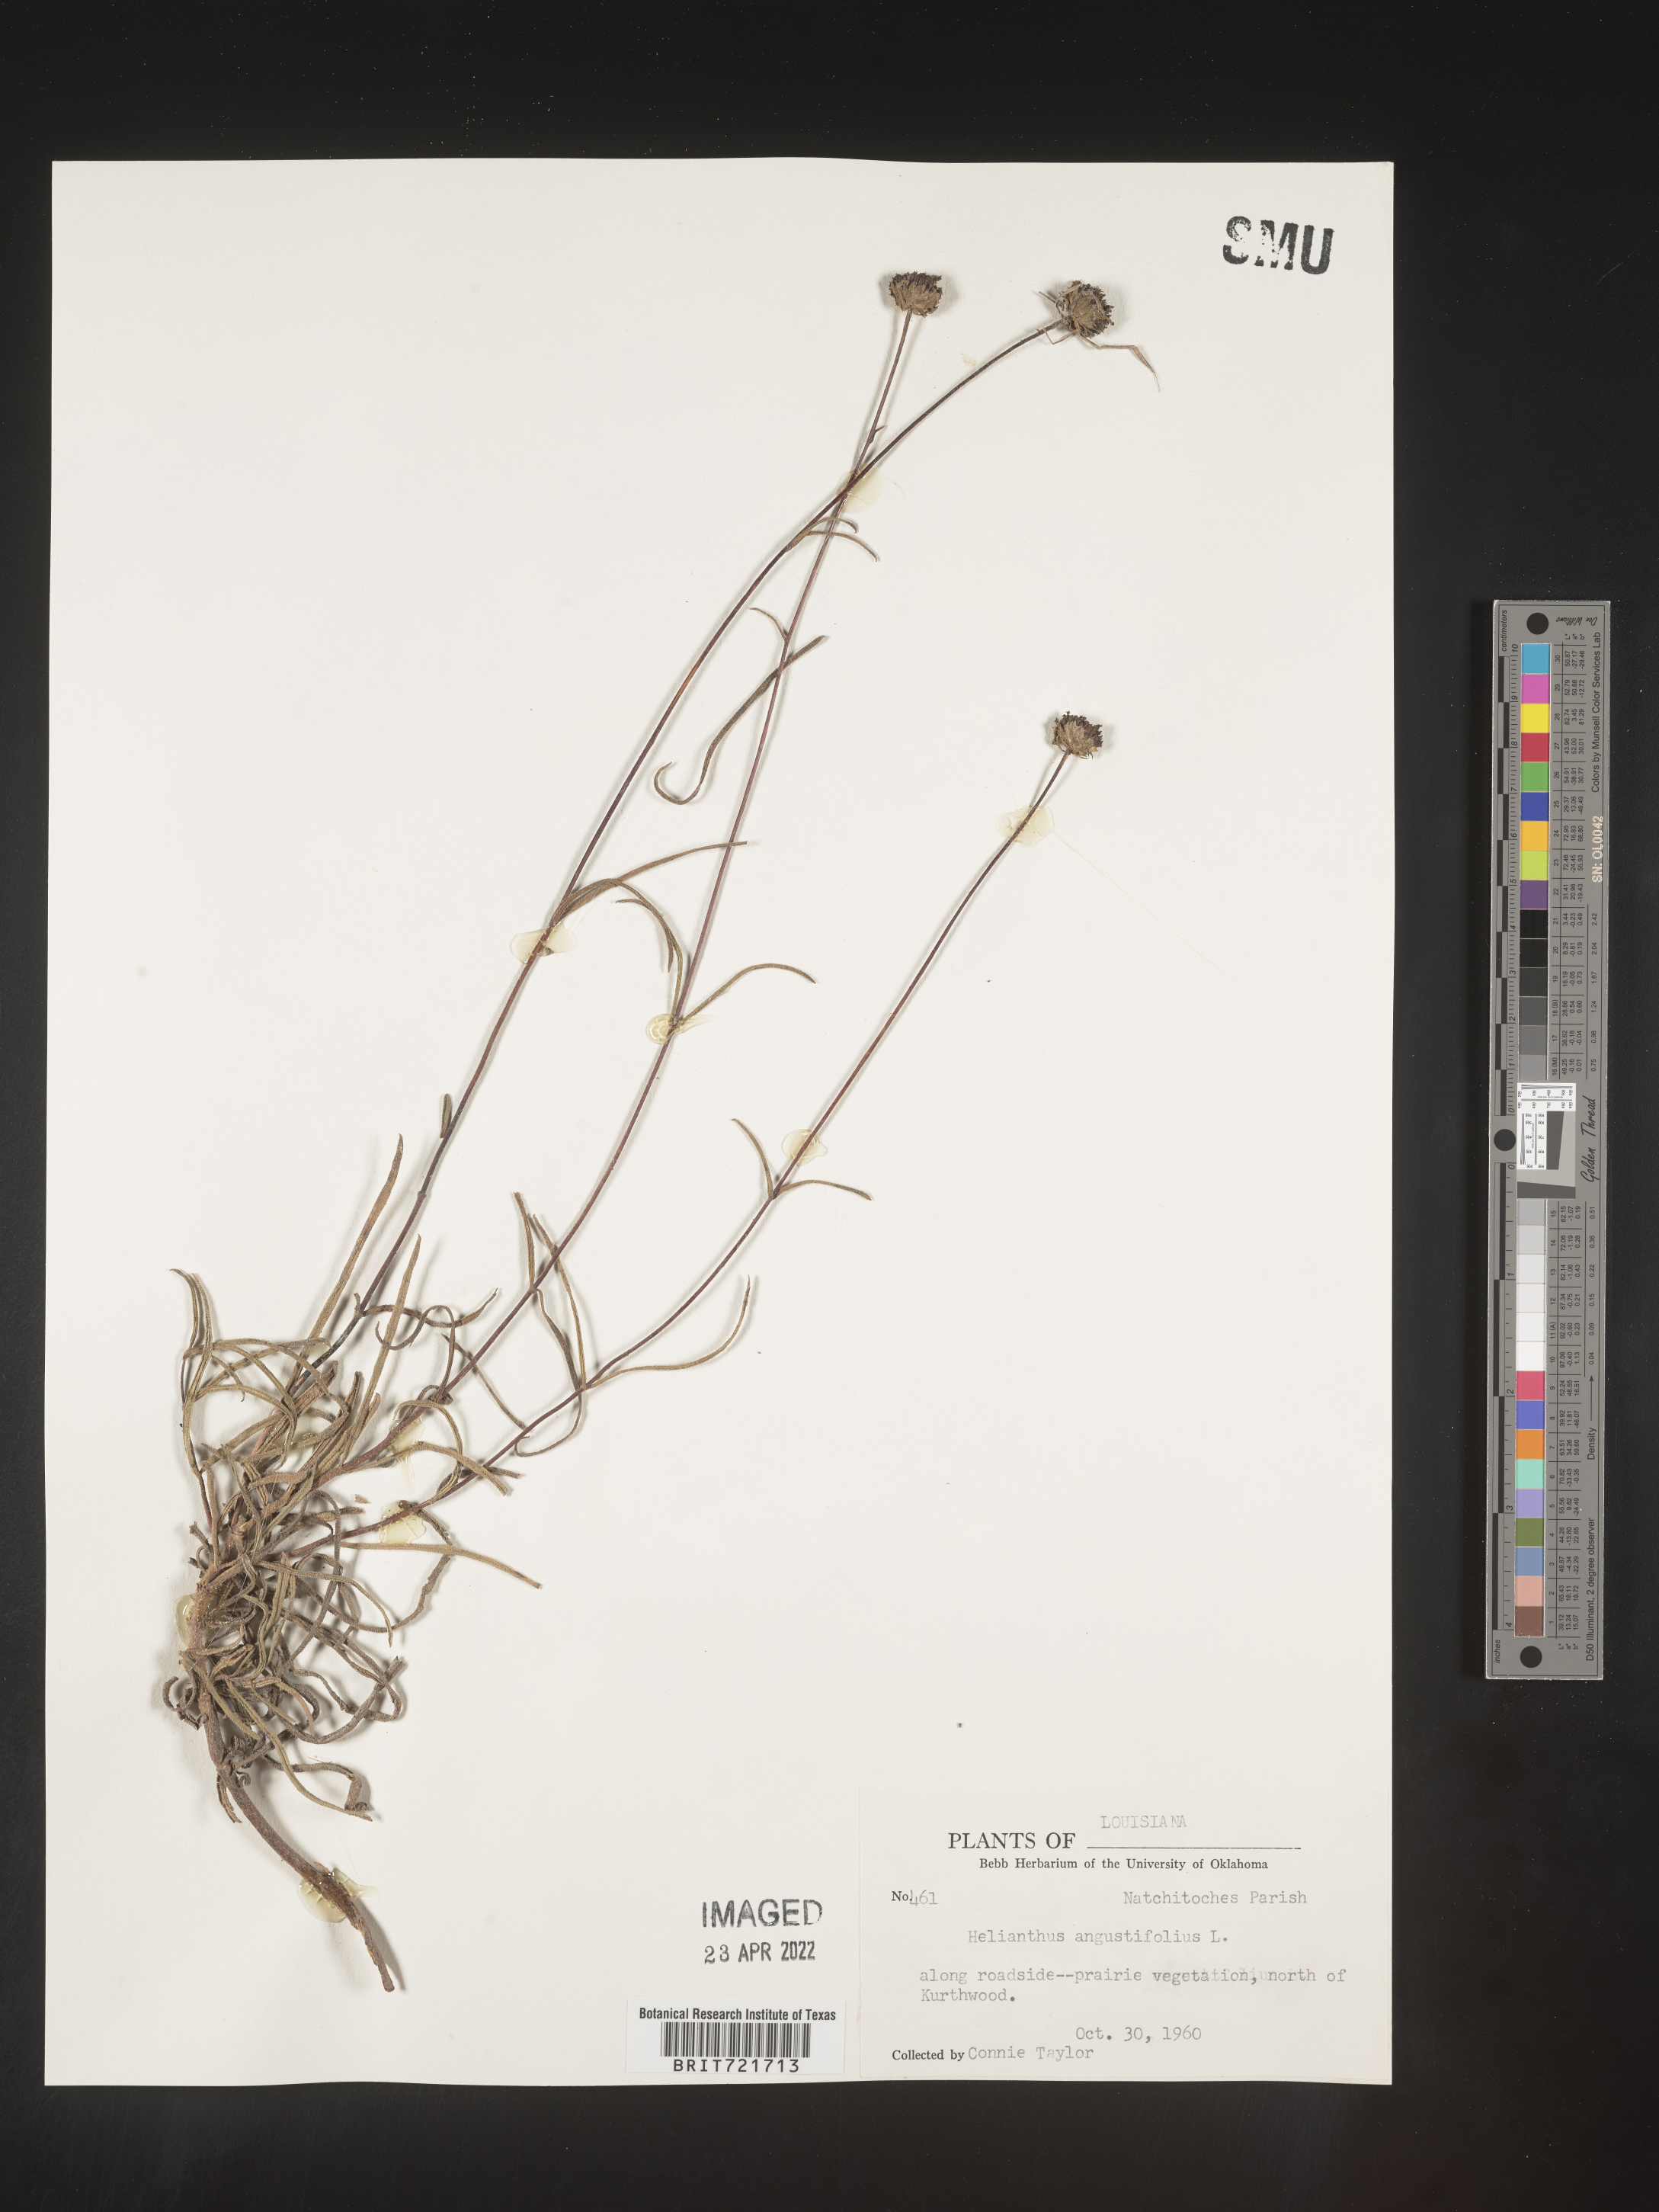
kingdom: Plantae
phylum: Tracheophyta
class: Magnoliopsida
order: Asterales
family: Asteraceae
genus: Helianthus
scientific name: Helianthus angustifolius
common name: Swamp sunflower
